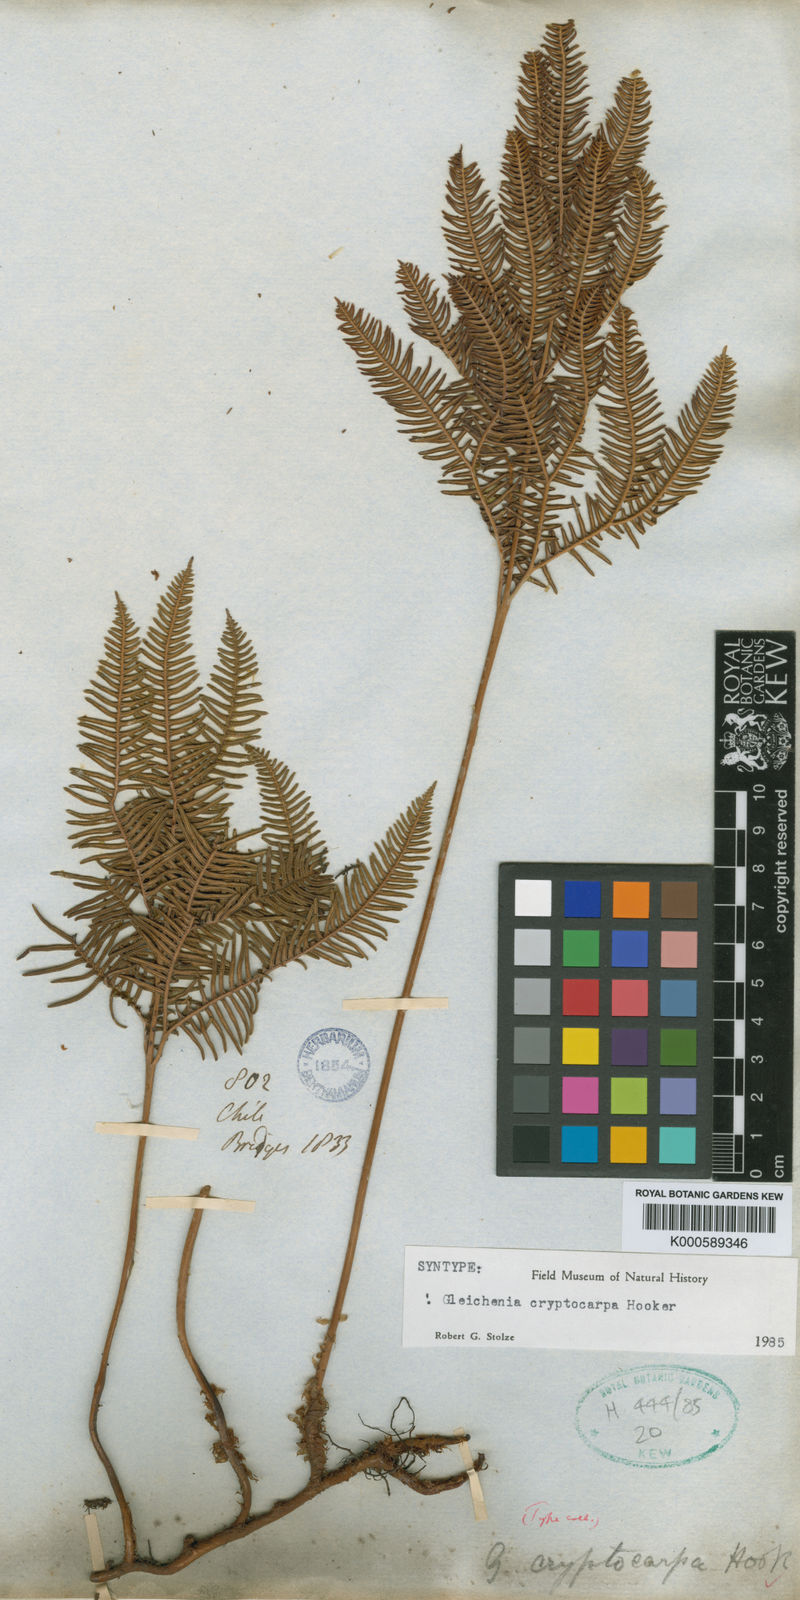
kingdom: Plantae
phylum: Tracheophyta
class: Polypodiopsida
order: Gleicheniales
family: Gleicheniaceae
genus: Sticherus
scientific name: Sticherus cryptocarpus
